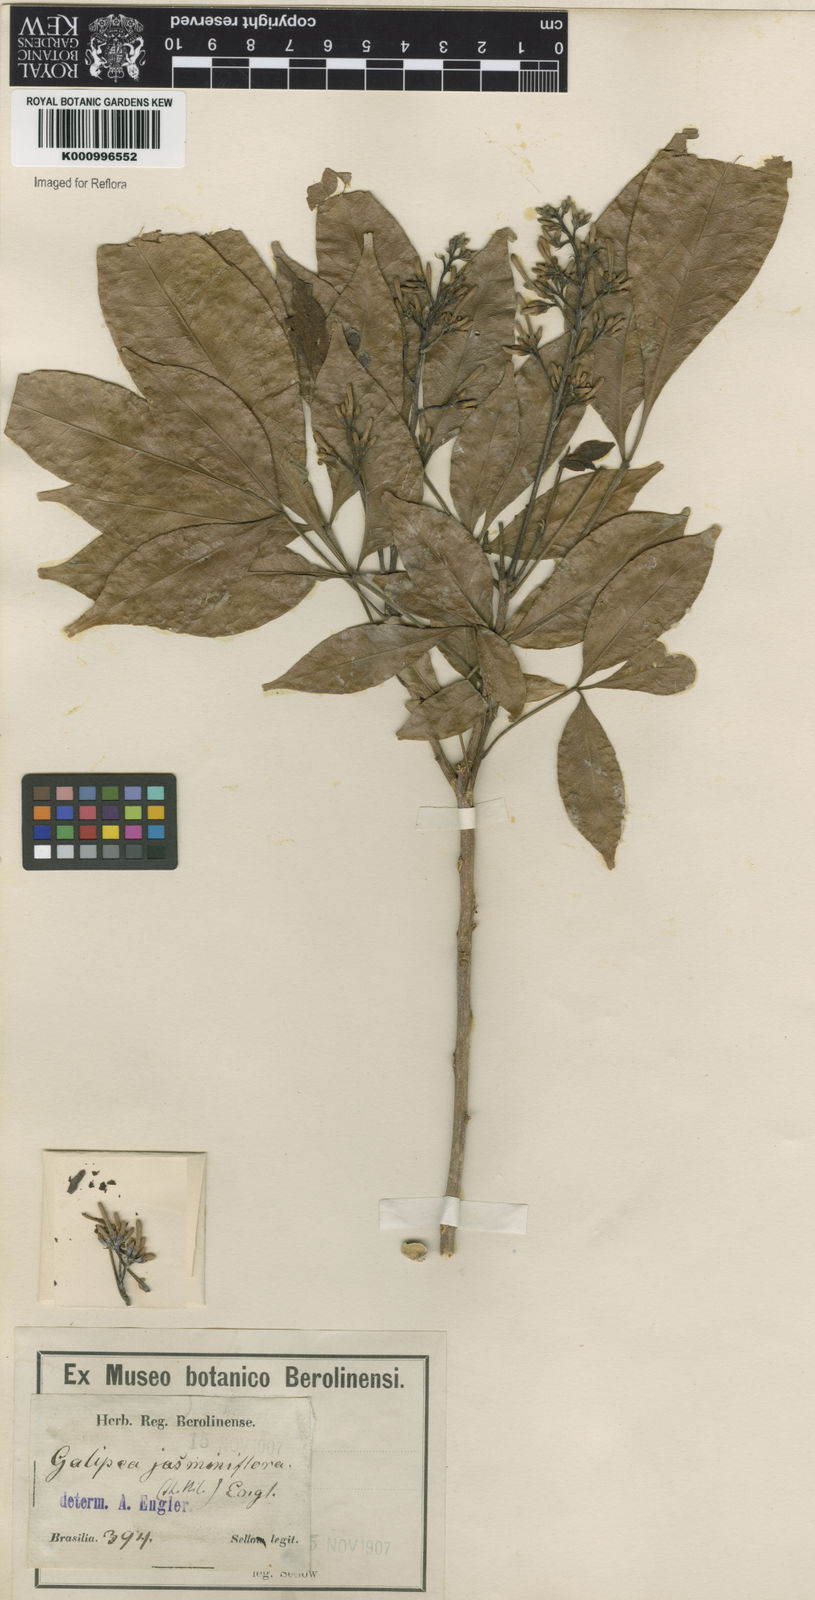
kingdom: Plantae
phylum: Tracheophyta
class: Magnoliopsida
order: Sapindales
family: Rutaceae
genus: Galipea
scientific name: Galipea jasminiflora
